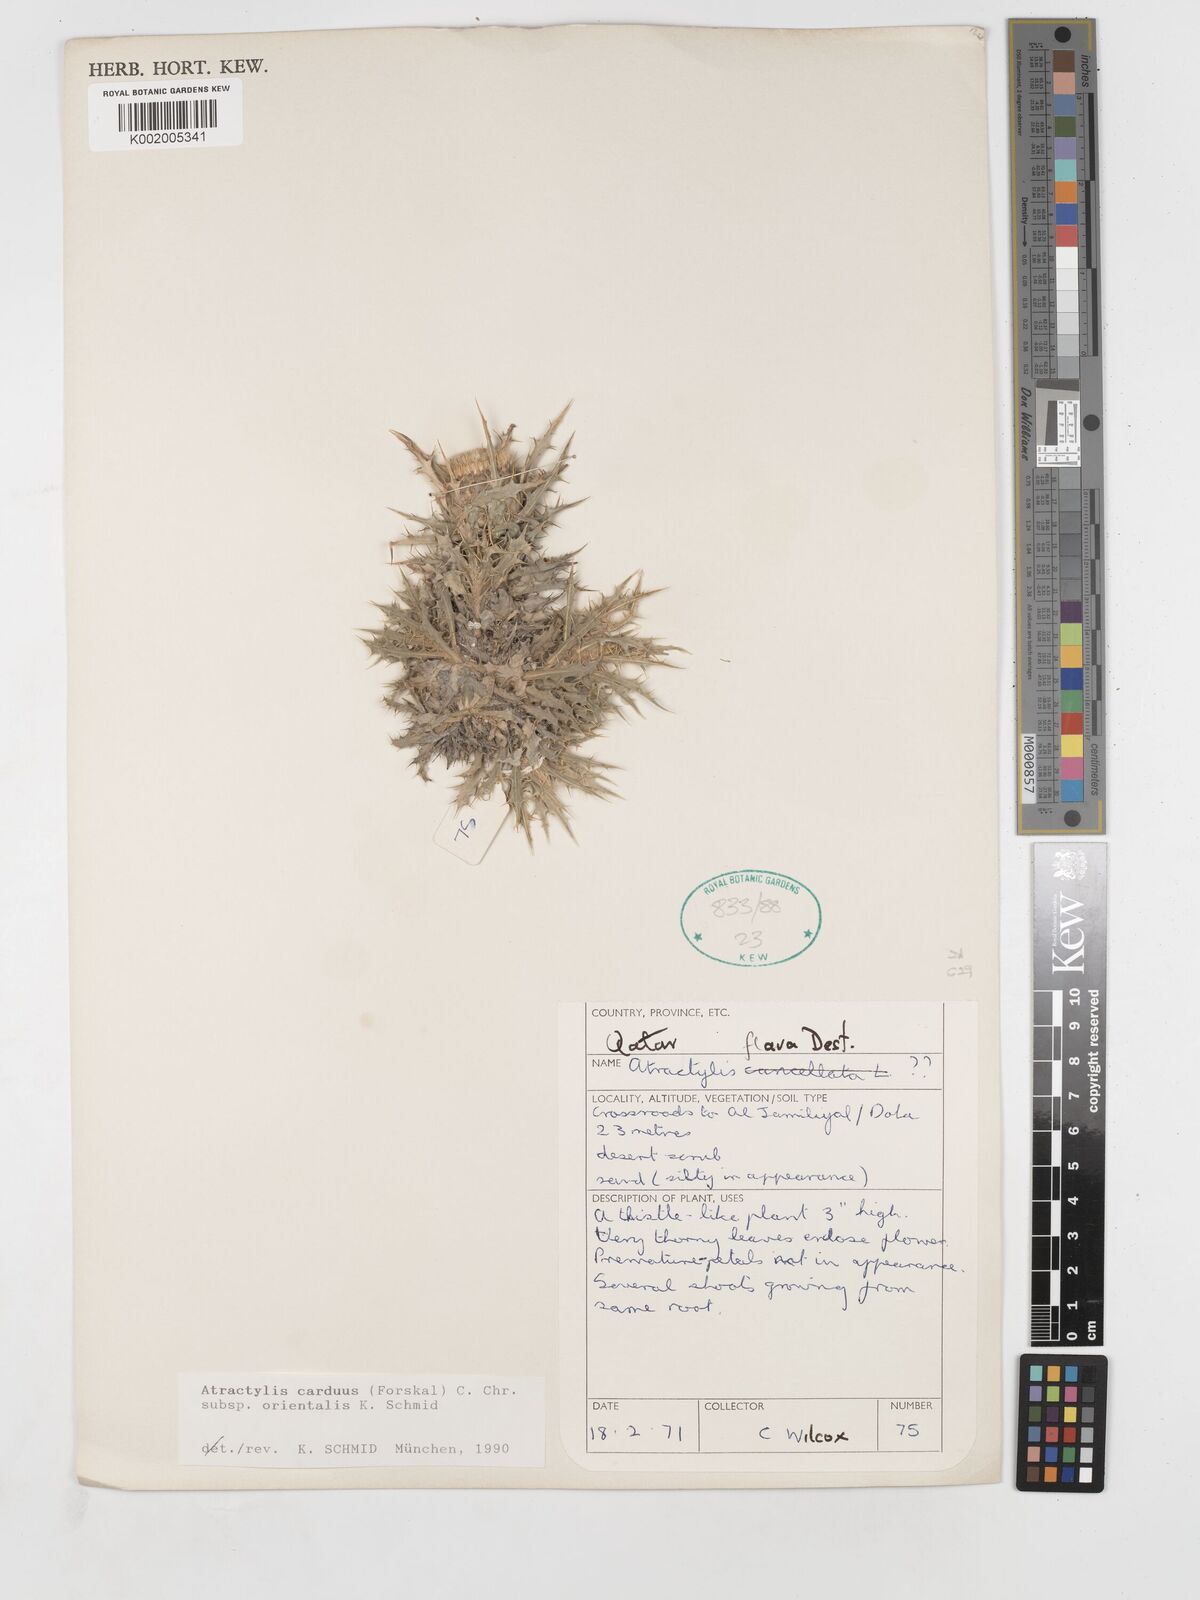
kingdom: Plantae
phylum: Tracheophyta
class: Magnoliopsida
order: Asterales
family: Asteraceae
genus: Atractylis
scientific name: Atractylis carduus
